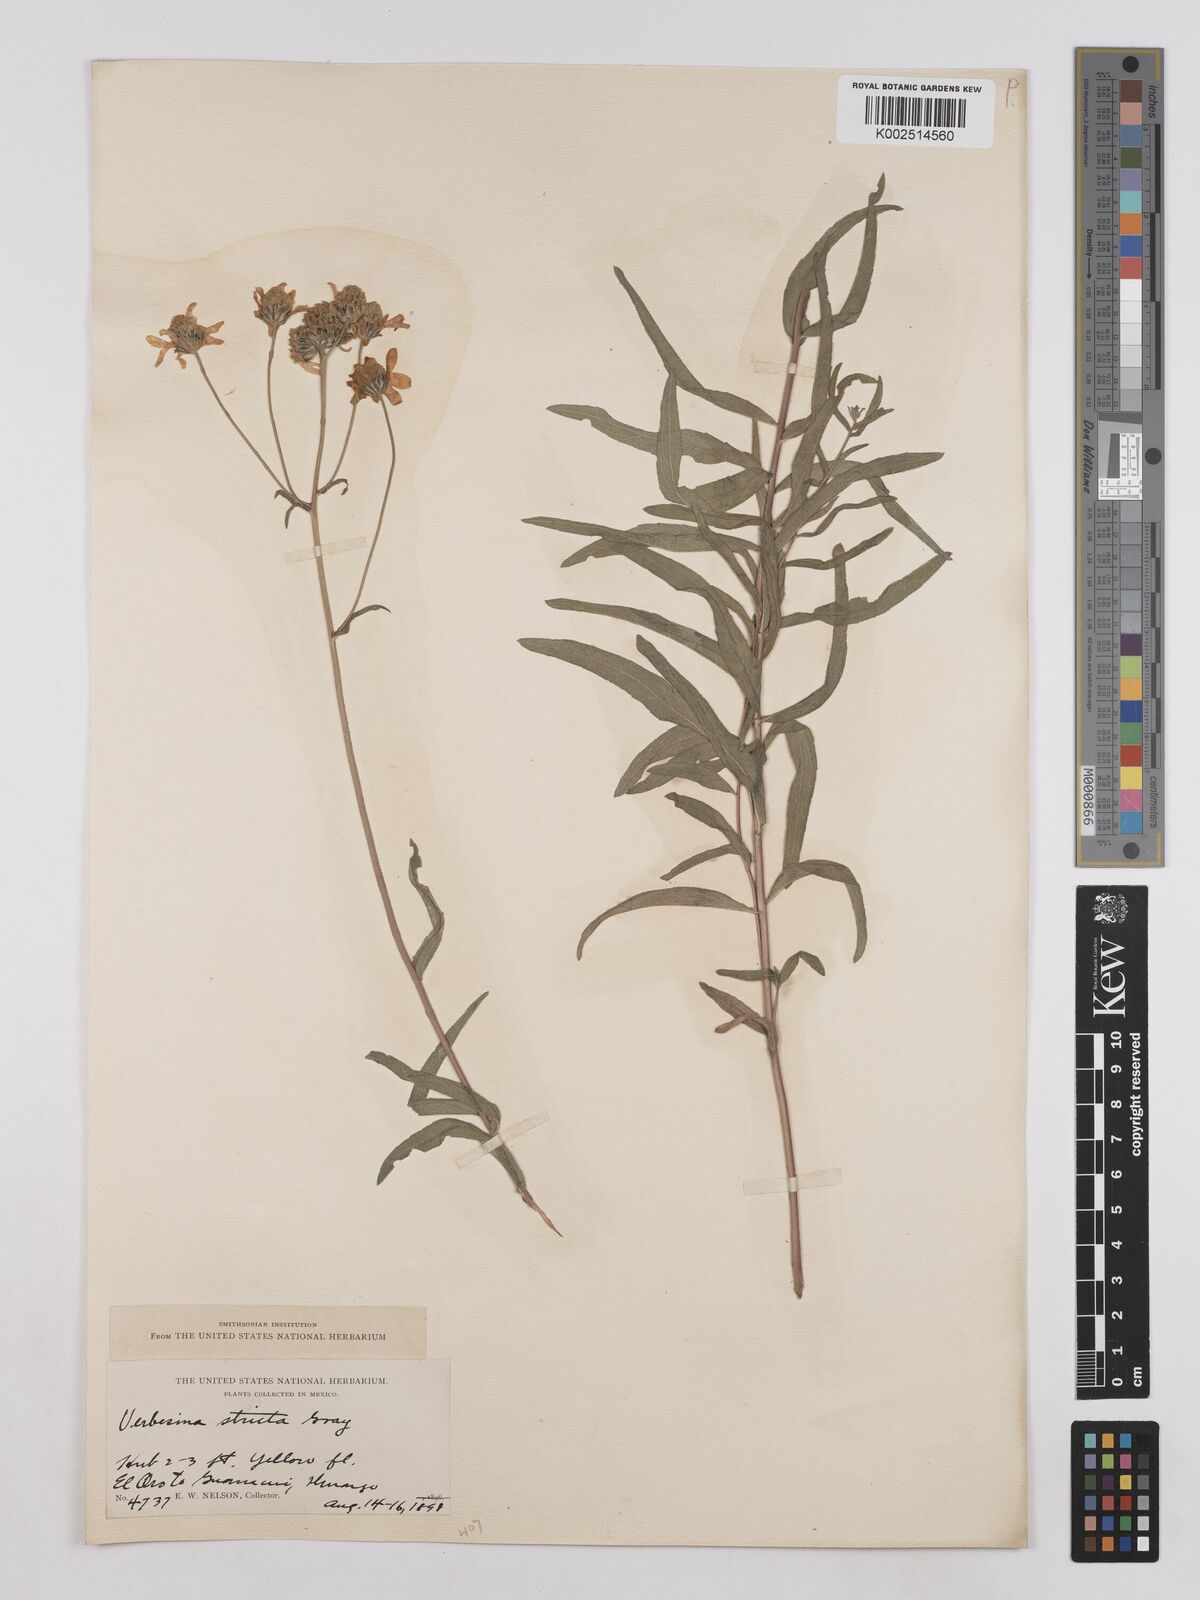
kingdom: Plantae
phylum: Tracheophyta
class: Magnoliopsida
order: Asterales
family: Asteraceae
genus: Verbesina
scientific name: Verbesina parviflora
